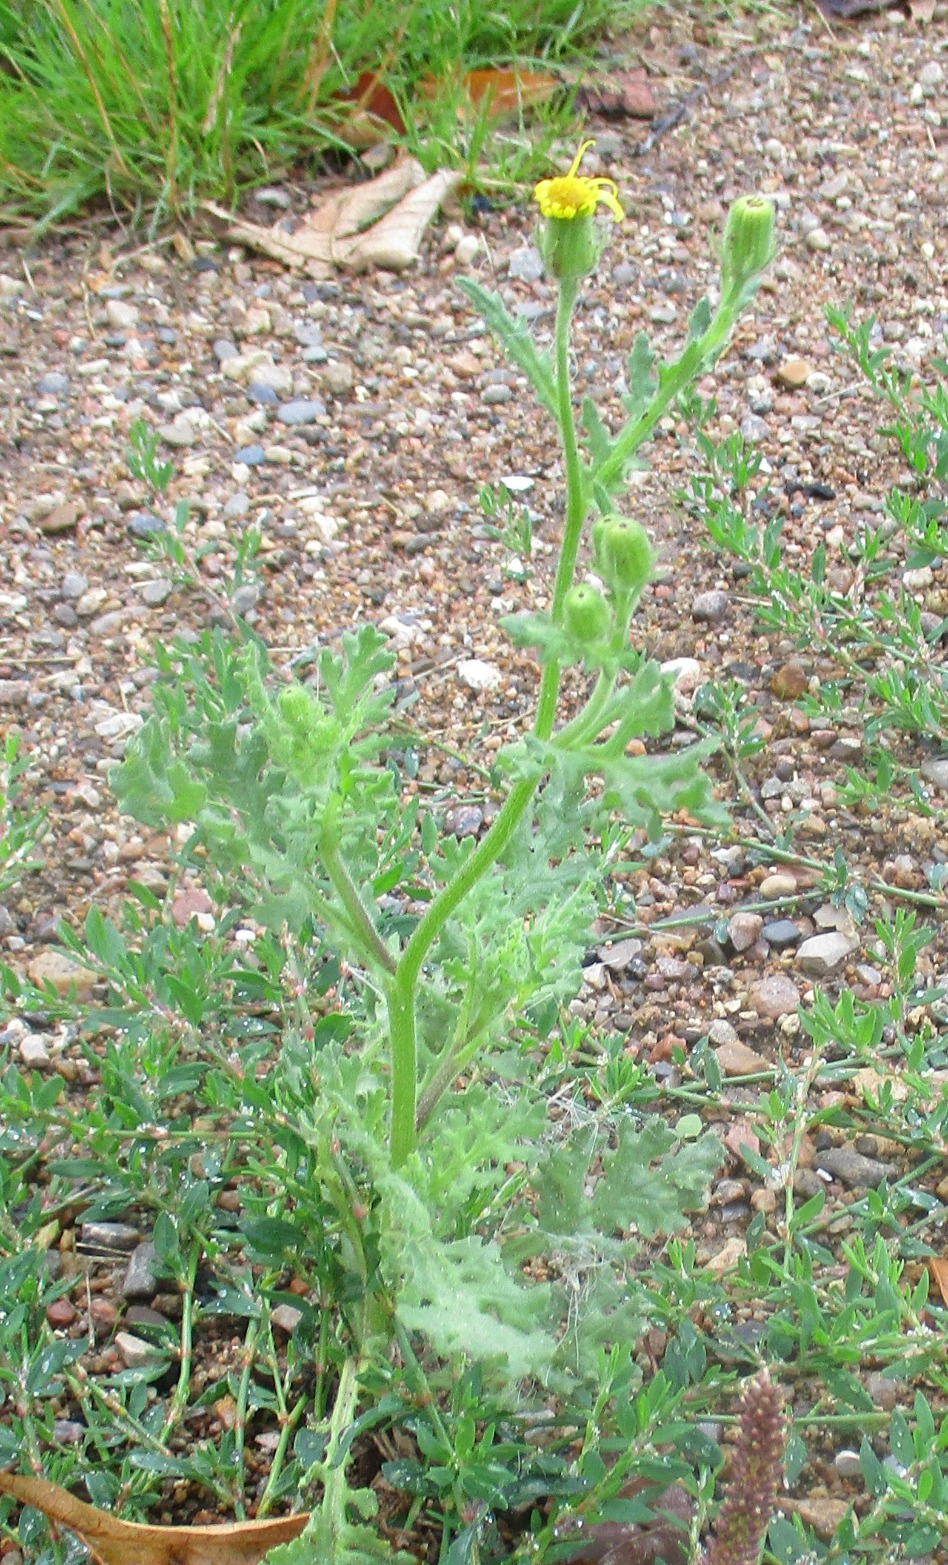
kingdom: Plantae
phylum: Tracheophyta
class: Magnoliopsida
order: Asterales
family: Asteraceae
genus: Senecio
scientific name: Senecio viscosus
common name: Klæbrig brandbæger
